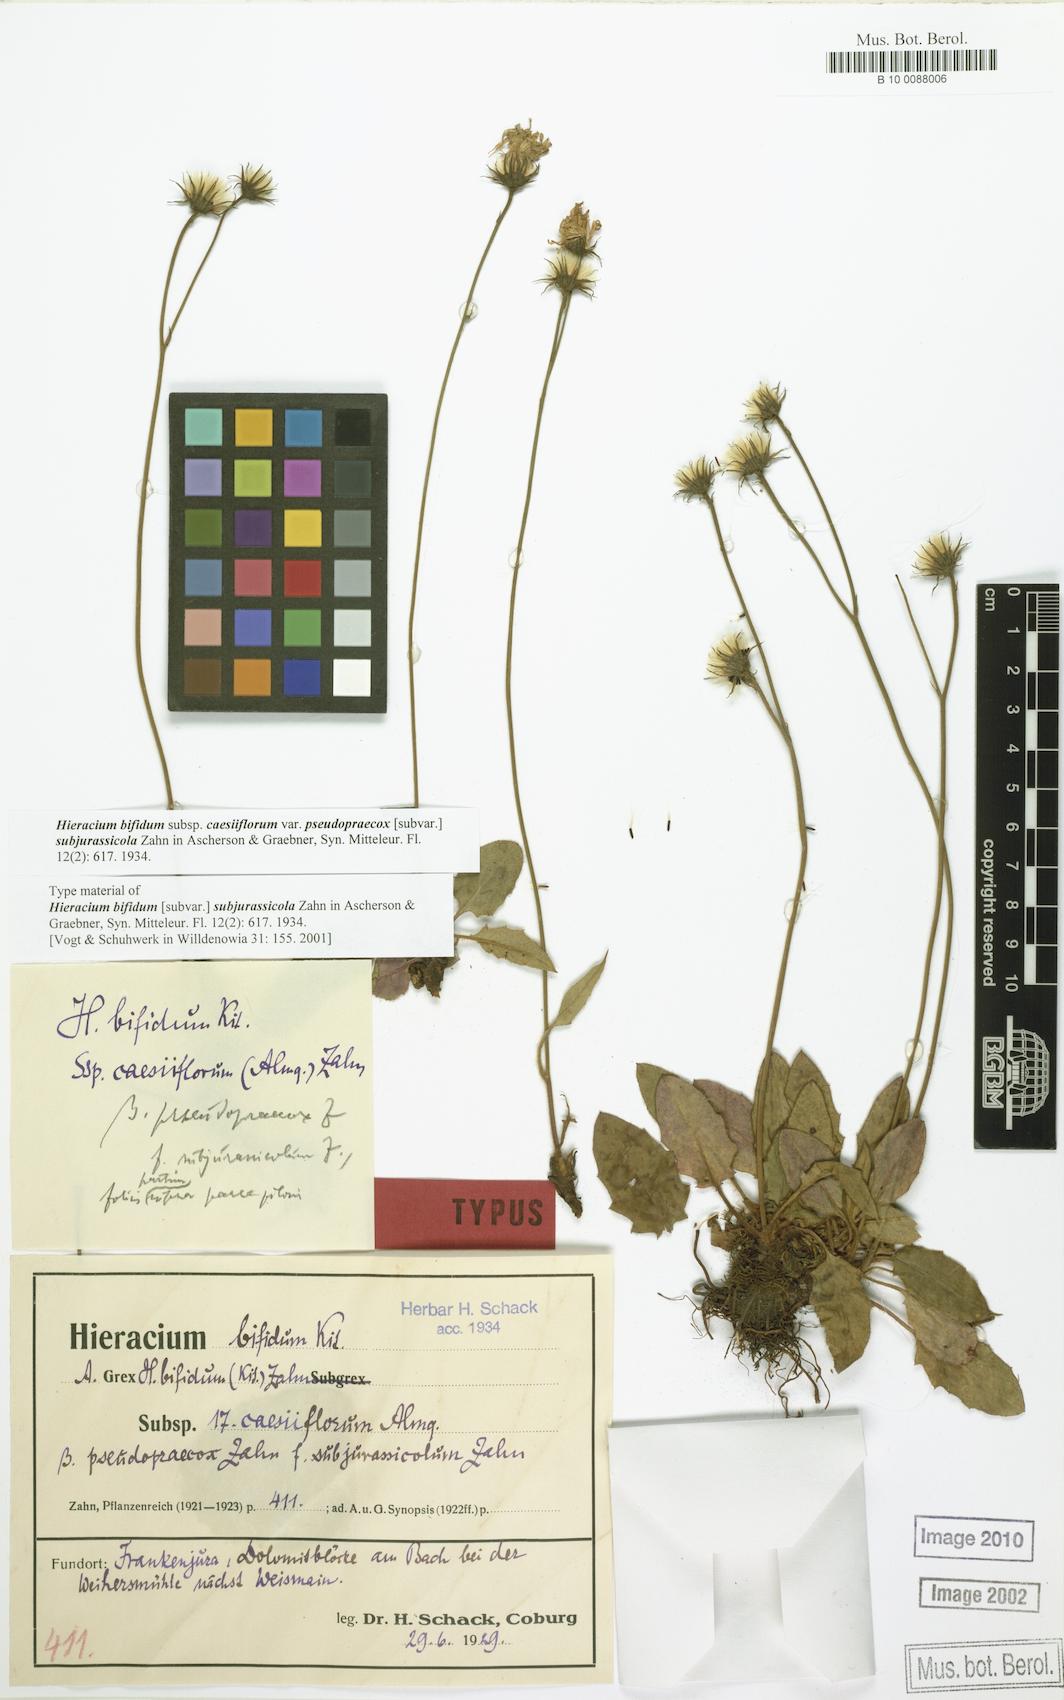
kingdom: Plantae
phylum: Tracheophyta
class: Magnoliopsida
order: Asterales
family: Asteraceae
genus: Hieracium
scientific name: Hieracium bifidum
